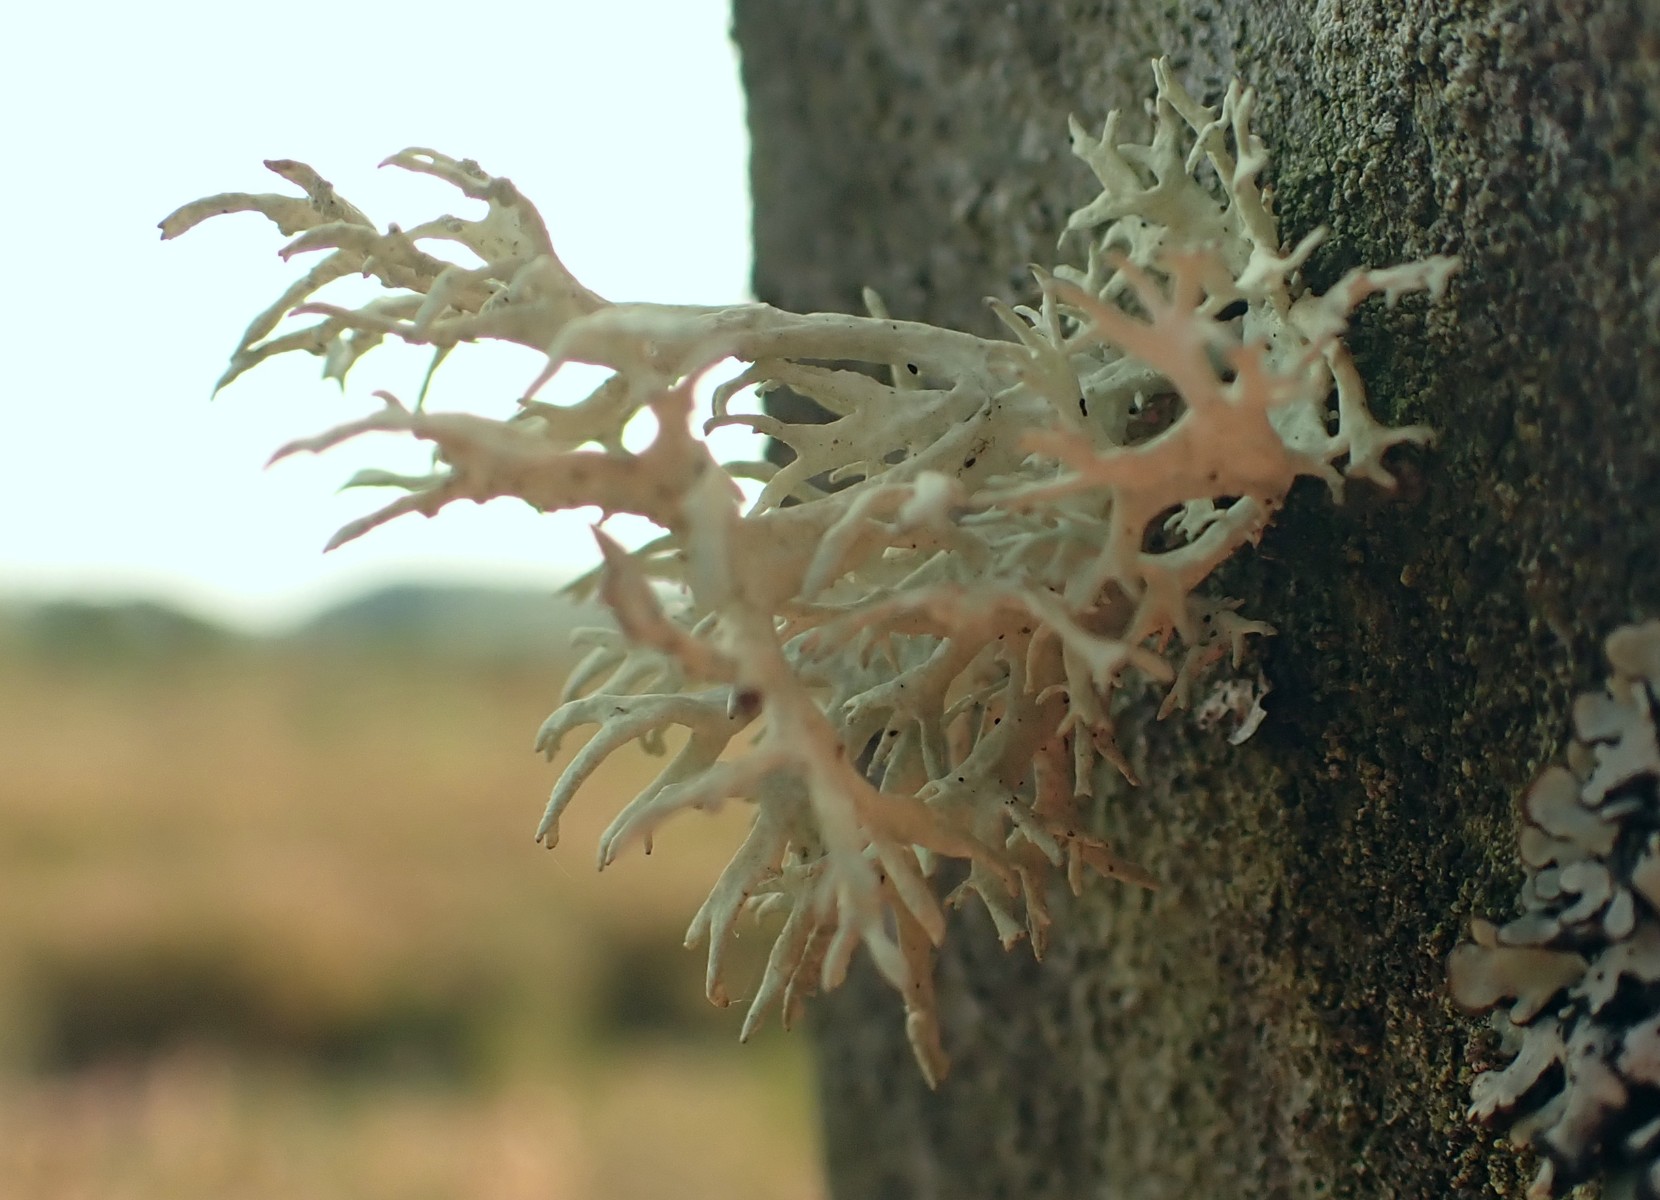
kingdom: Fungi
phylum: Ascomycota
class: Lecanoromycetes
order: Lecanorales
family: Parmeliaceae
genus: Evernia
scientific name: Evernia prunastri
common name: almindelig slåenlav
